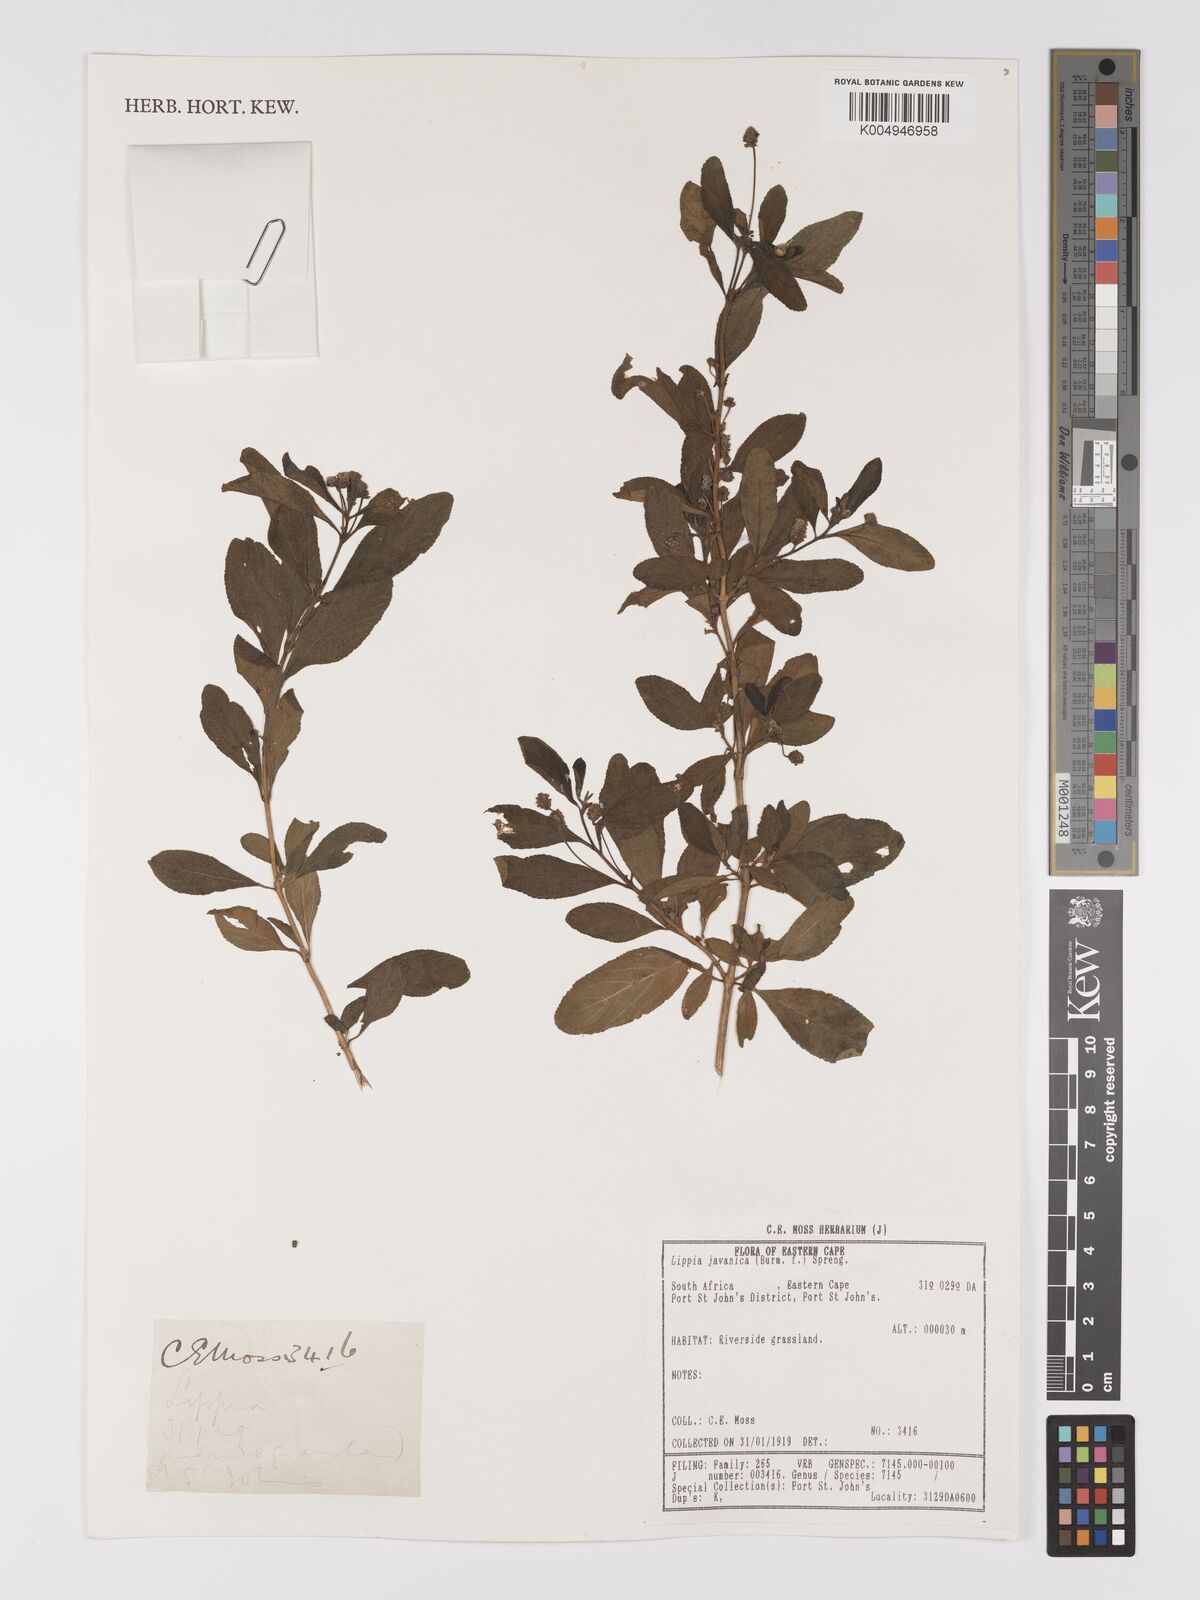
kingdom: Plantae
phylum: Tracheophyta
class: Magnoliopsida
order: Lamiales
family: Verbenaceae
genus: Lippia
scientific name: Lippia javanica
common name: Lemonbush
